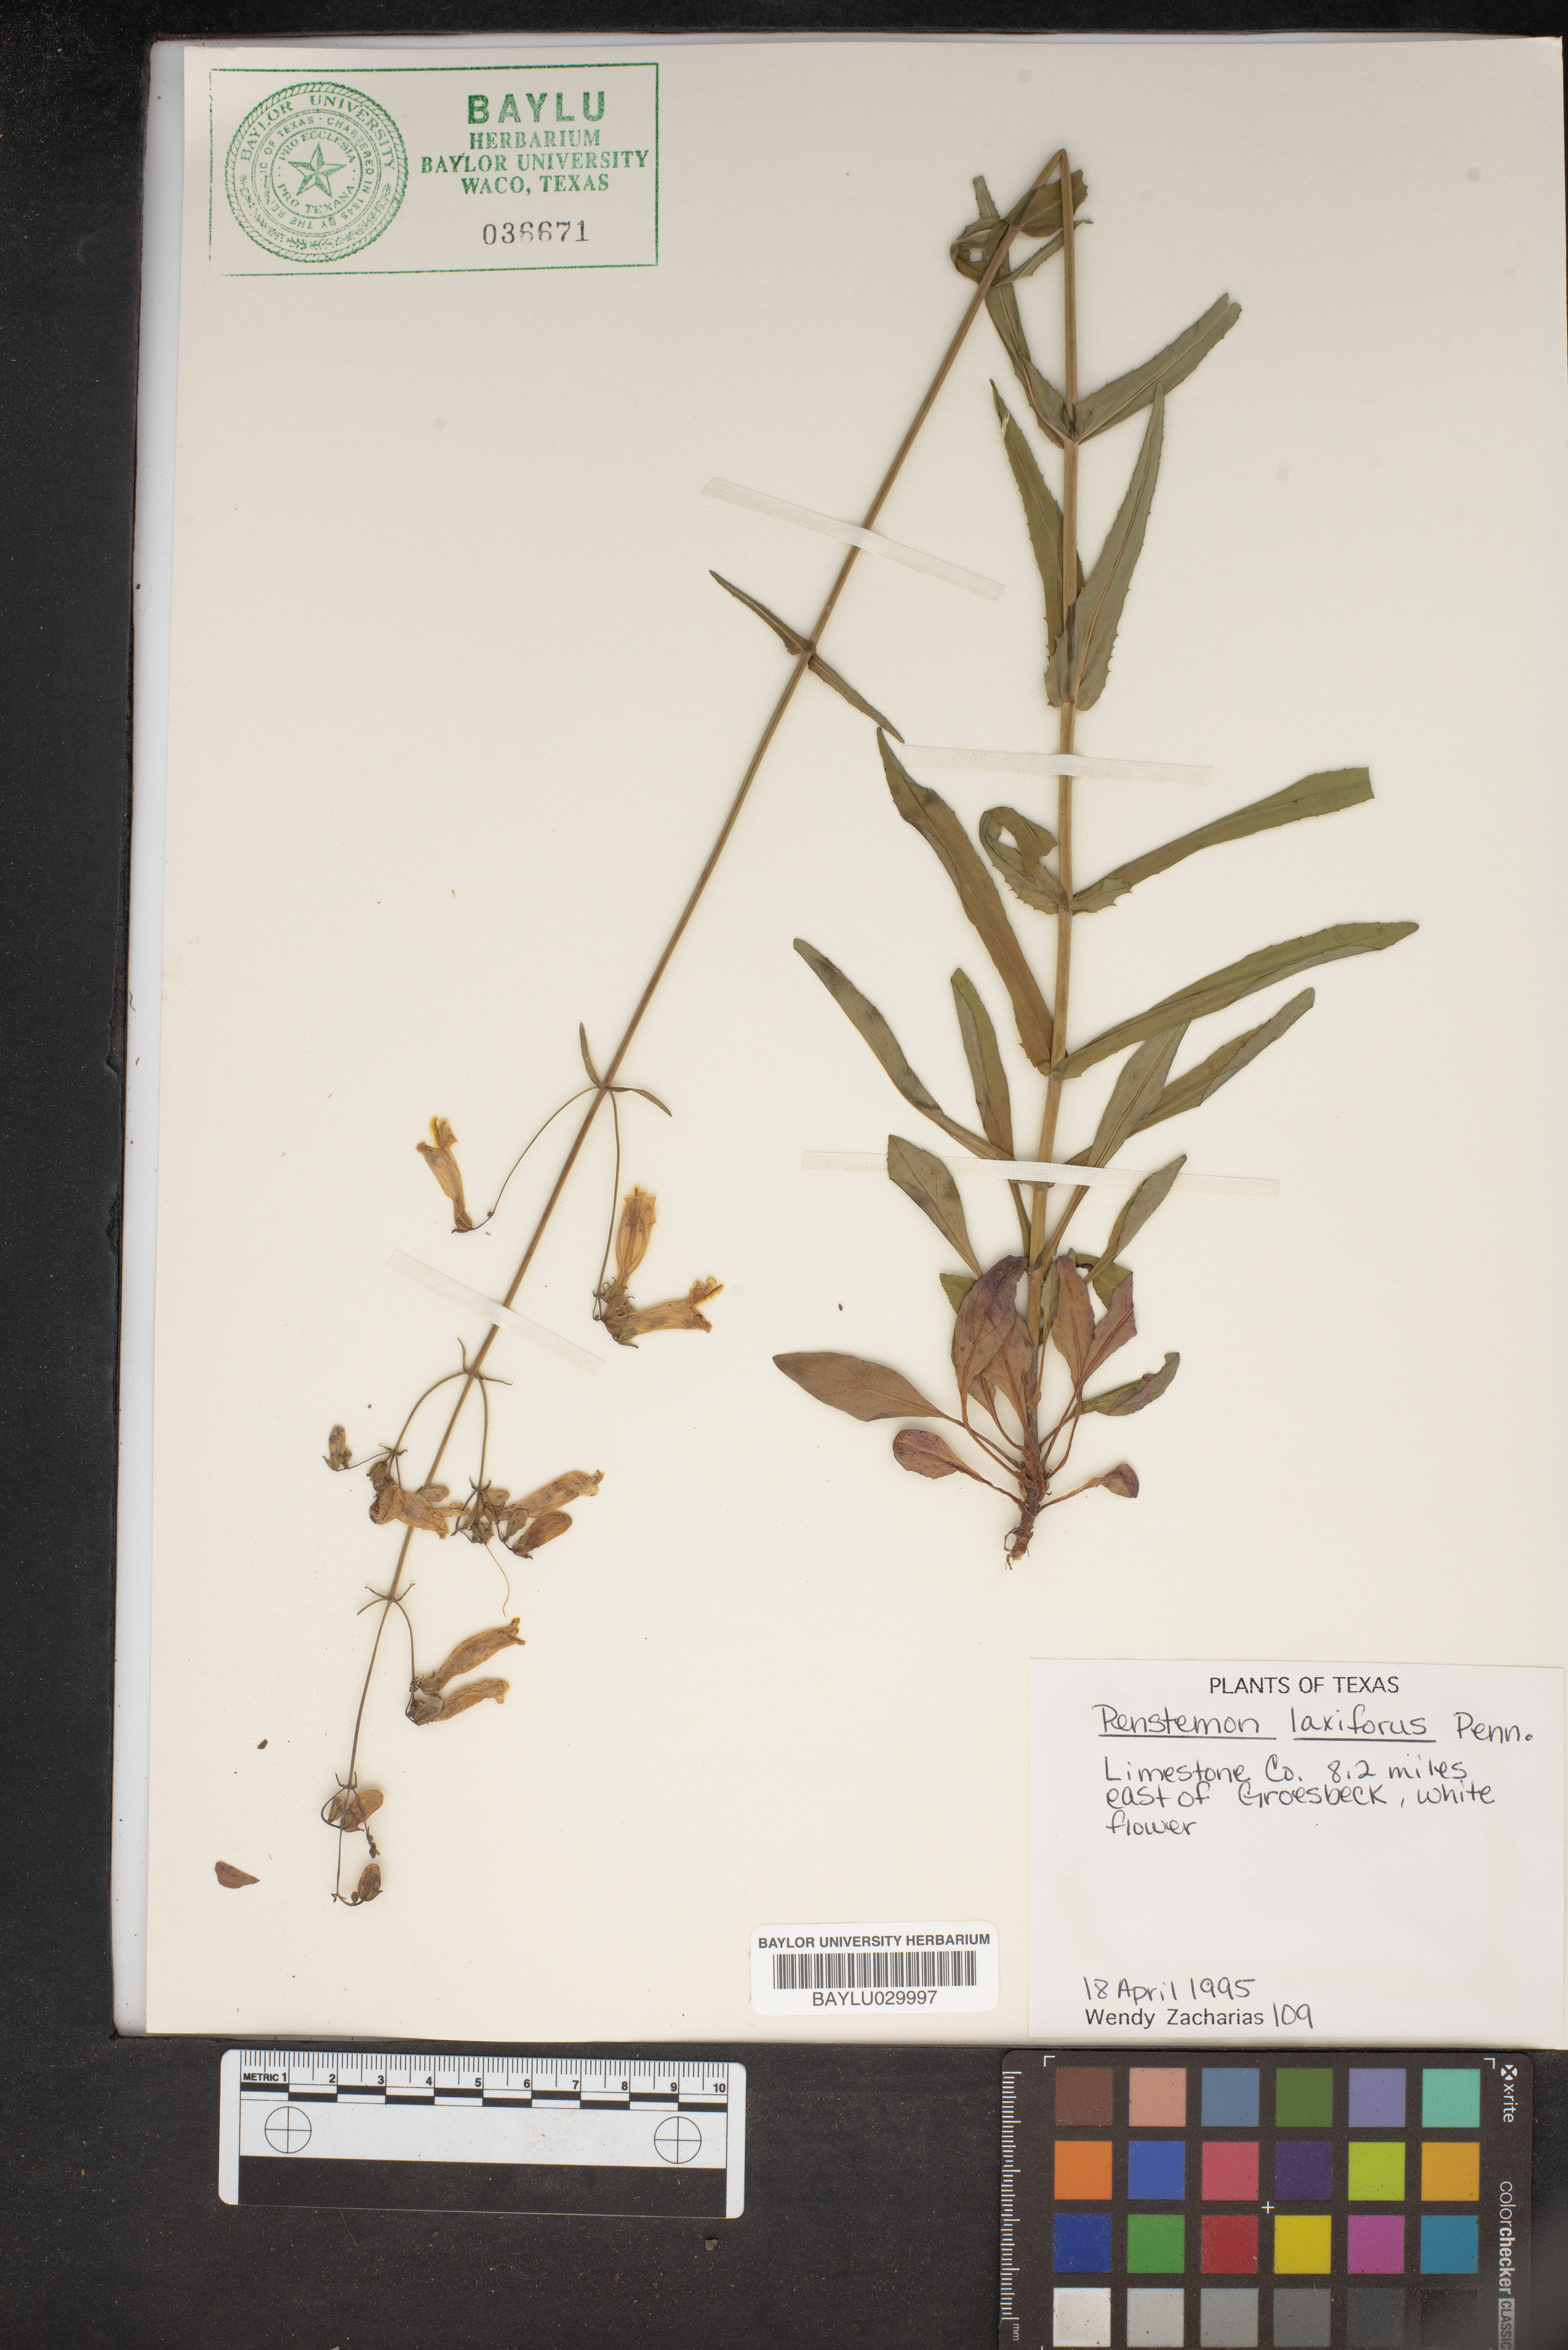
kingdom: Plantae
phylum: Tracheophyta
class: Magnoliopsida
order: Lamiales
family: Plantaginaceae
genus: Penstemon
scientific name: Penstemon laxiflorus
